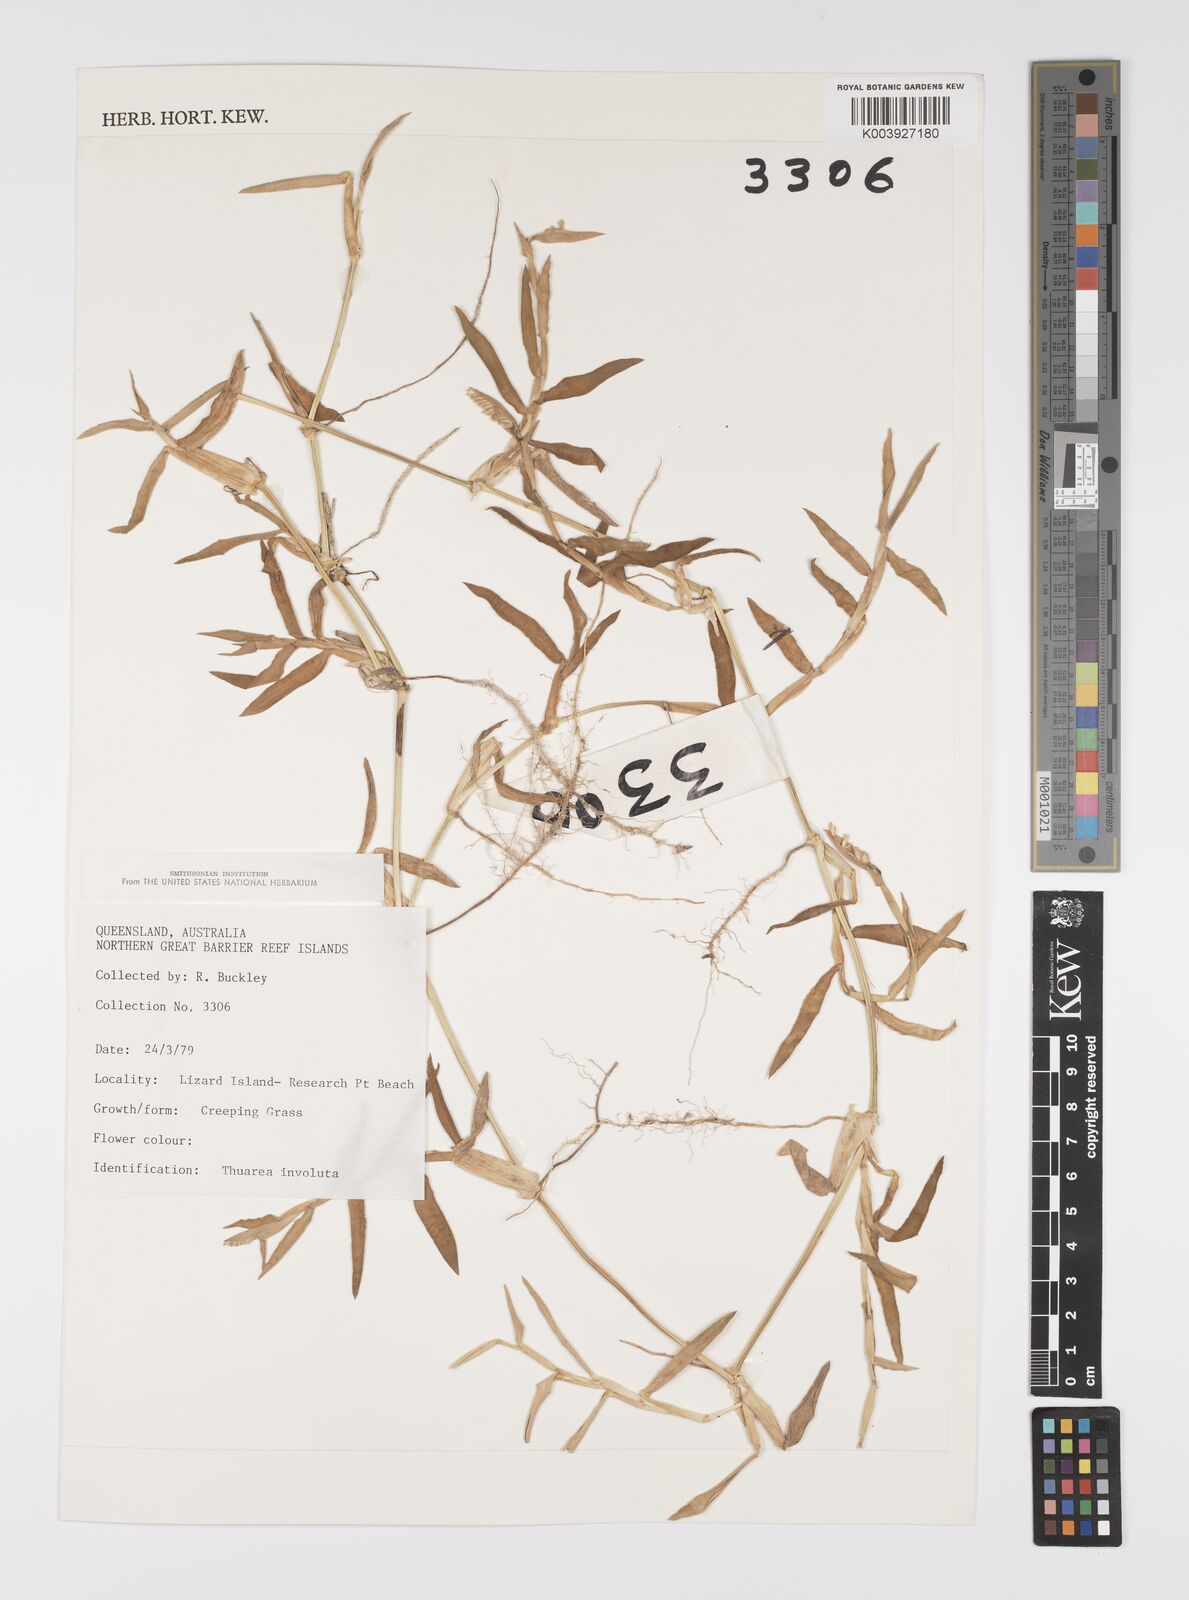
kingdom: Plantae
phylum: Tracheophyta
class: Liliopsida
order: Poales
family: Poaceae
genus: Thuarea
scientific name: Thuarea involuta
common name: Tropical beach grass
